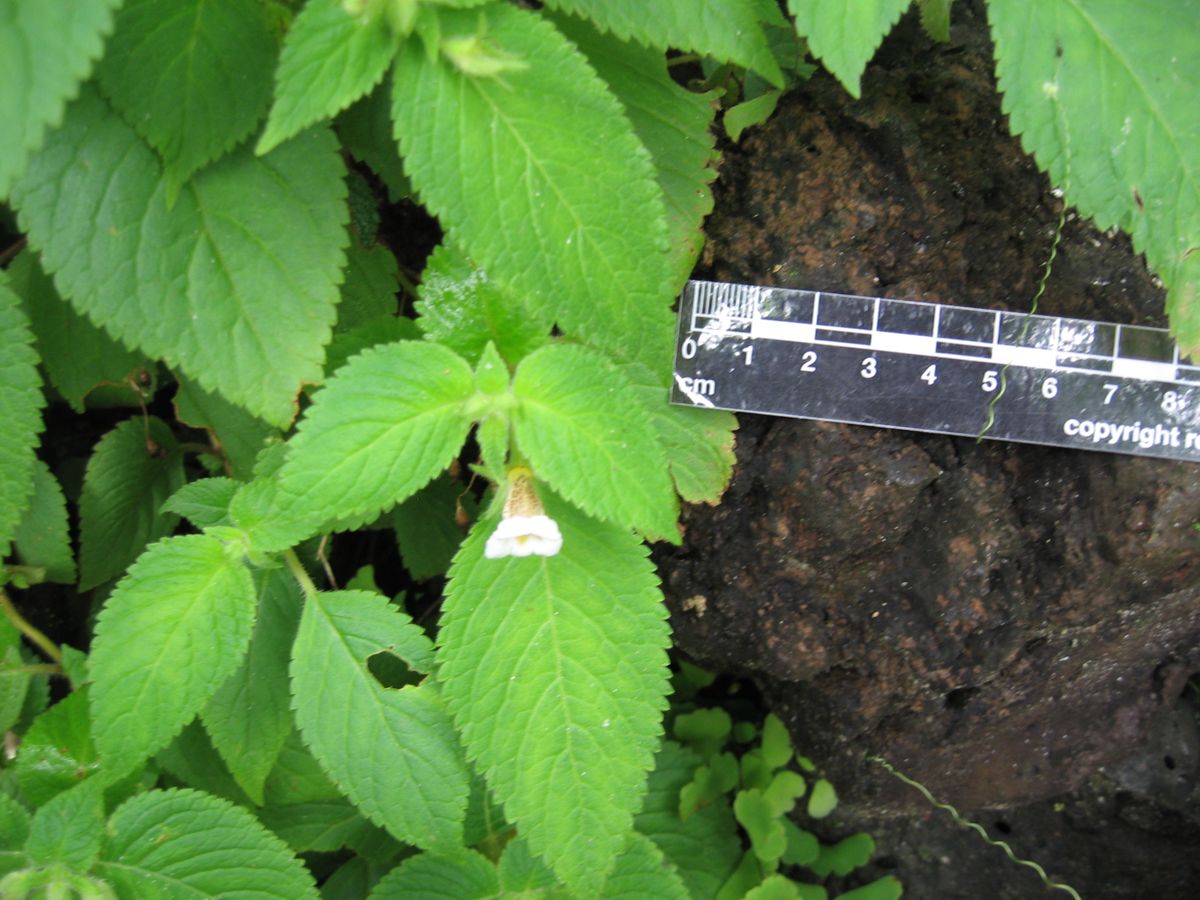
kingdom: Plantae
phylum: Tracheophyta
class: Magnoliopsida
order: Lamiales
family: Gesneriaceae
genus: Achimenes
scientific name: Achimenes misera
